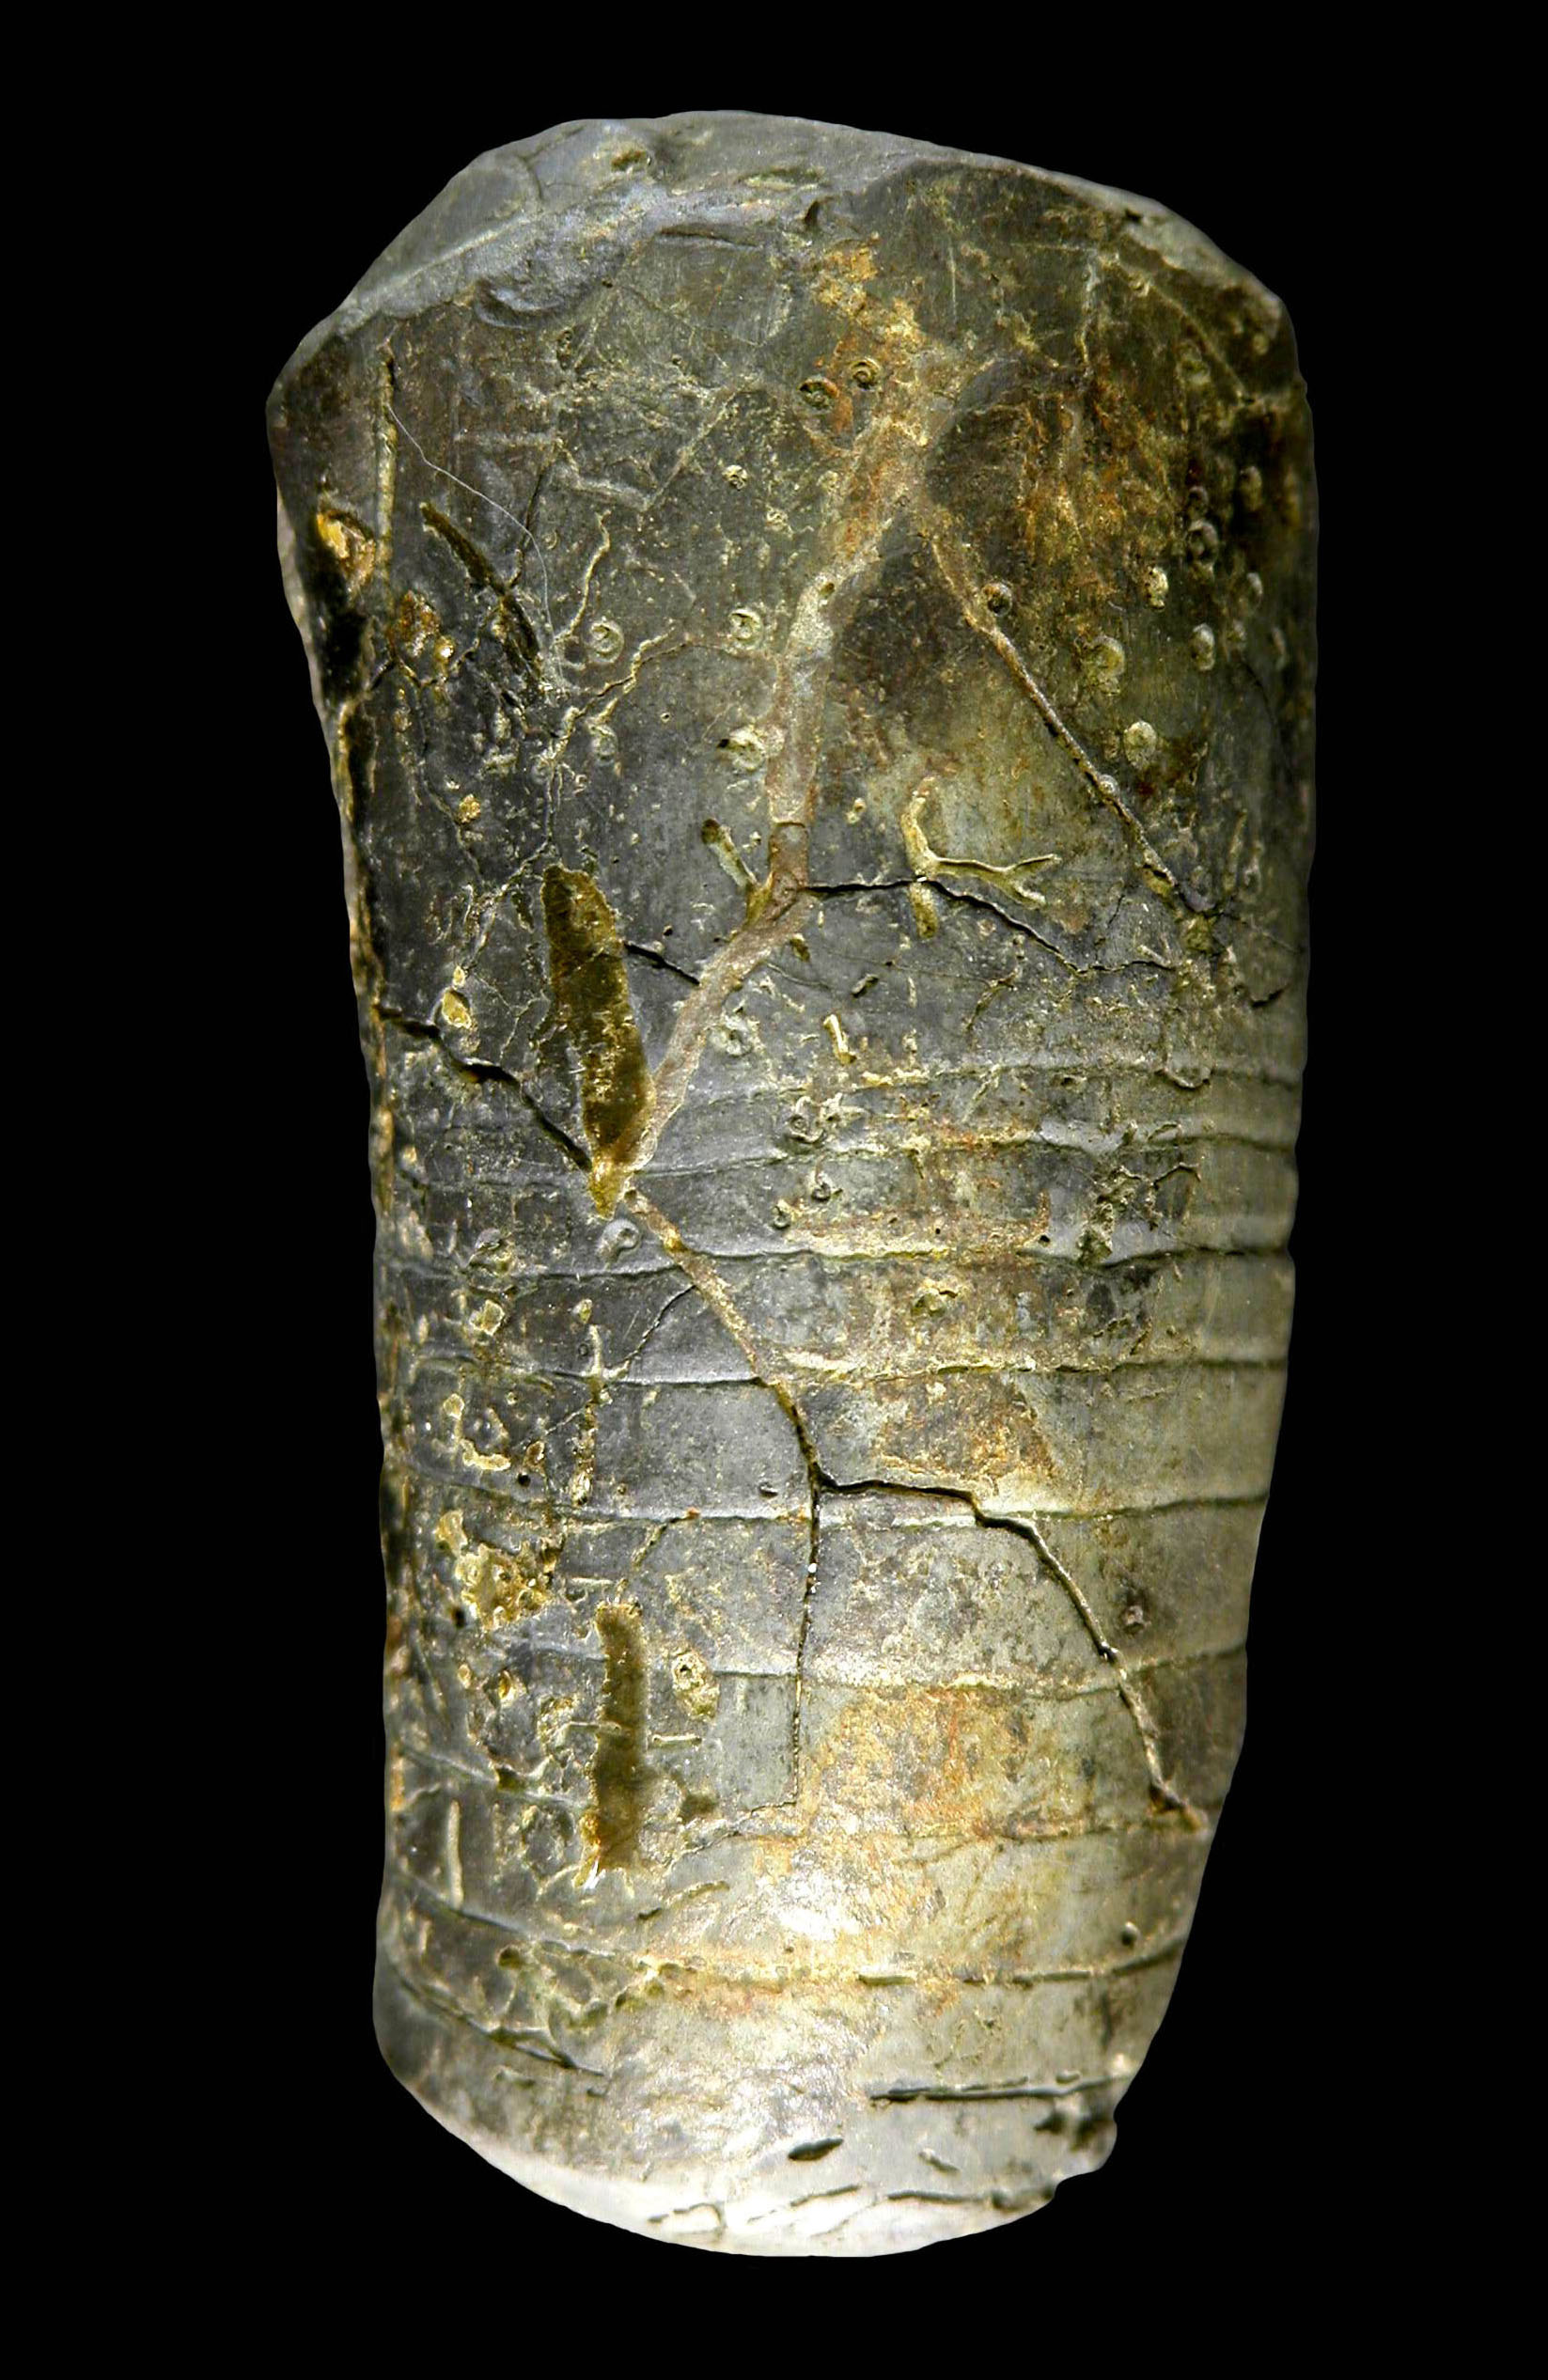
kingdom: Animalia
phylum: Mollusca
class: Cephalopoda
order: Orthocerida
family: Pseudorthoceratidae
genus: Eifeloceras
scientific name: Eifeloceras
